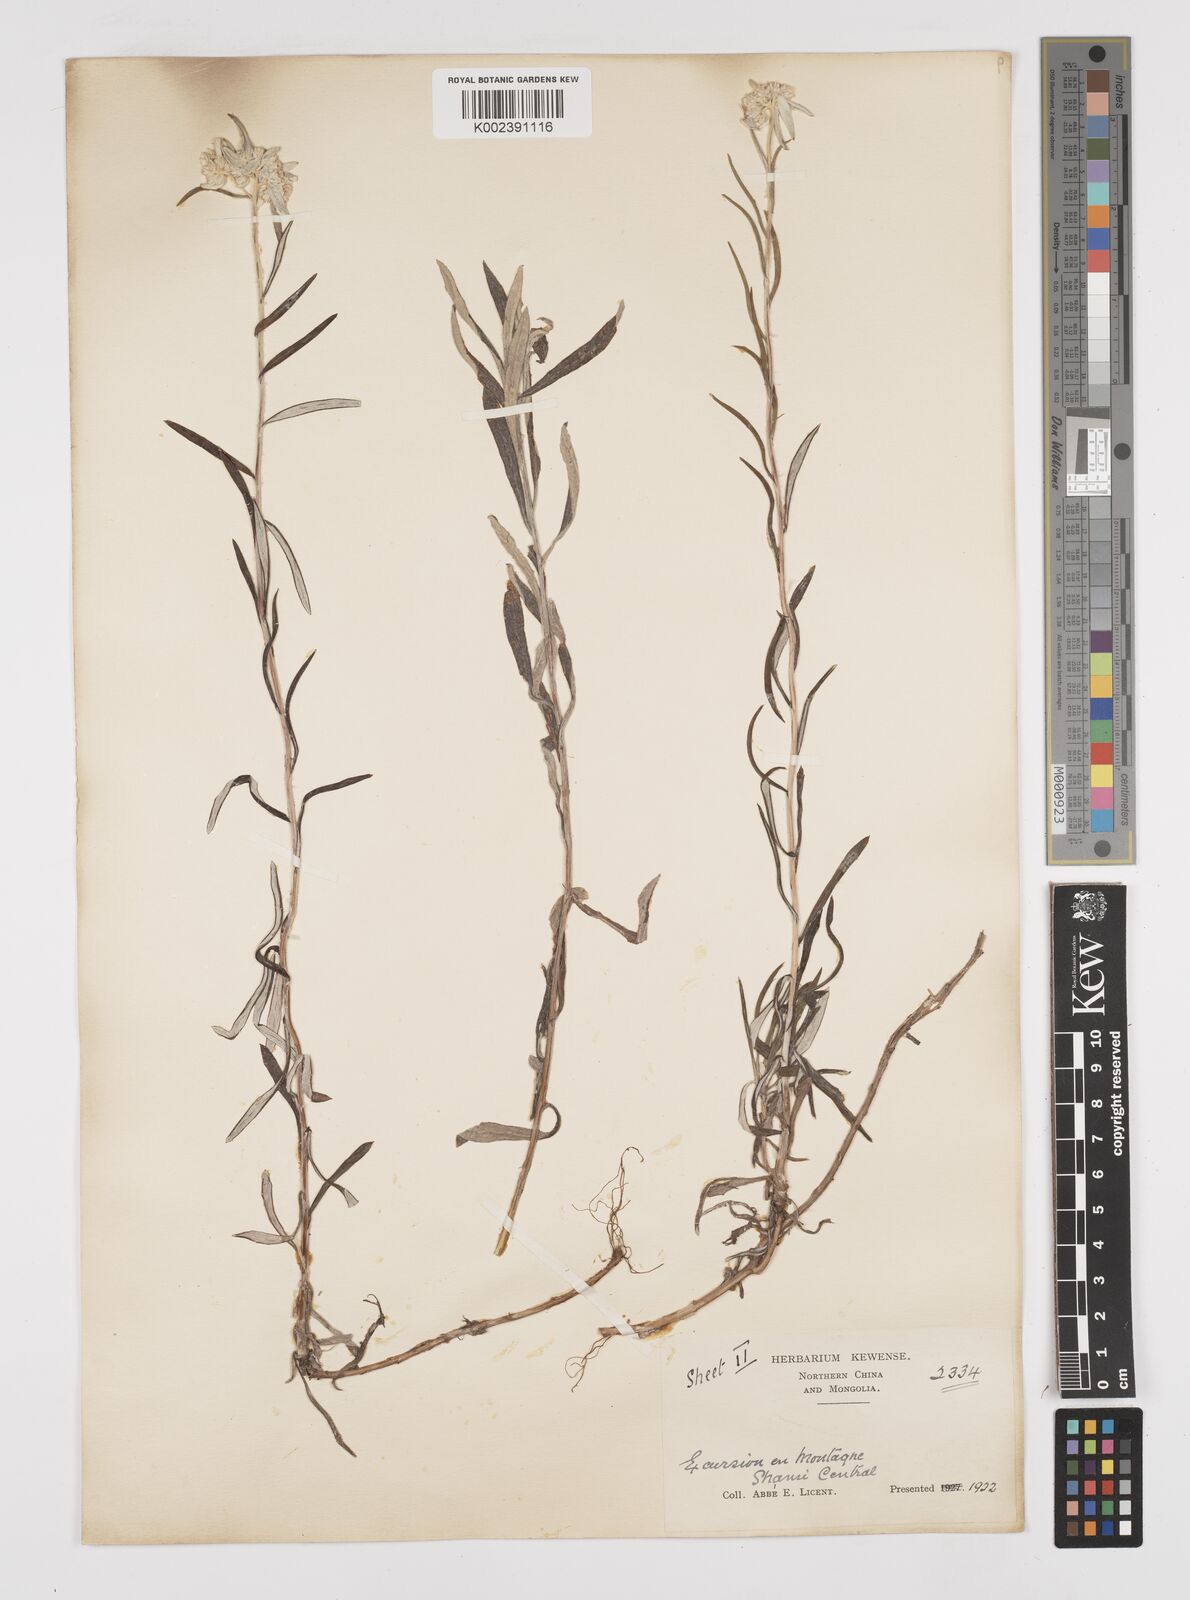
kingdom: Plantae
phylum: Tracheophyta
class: Magnoliopsida
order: Asterales
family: Asteraceae
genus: Anaphalis
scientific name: Anaphalis margaritacea
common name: Pearly everlasting
